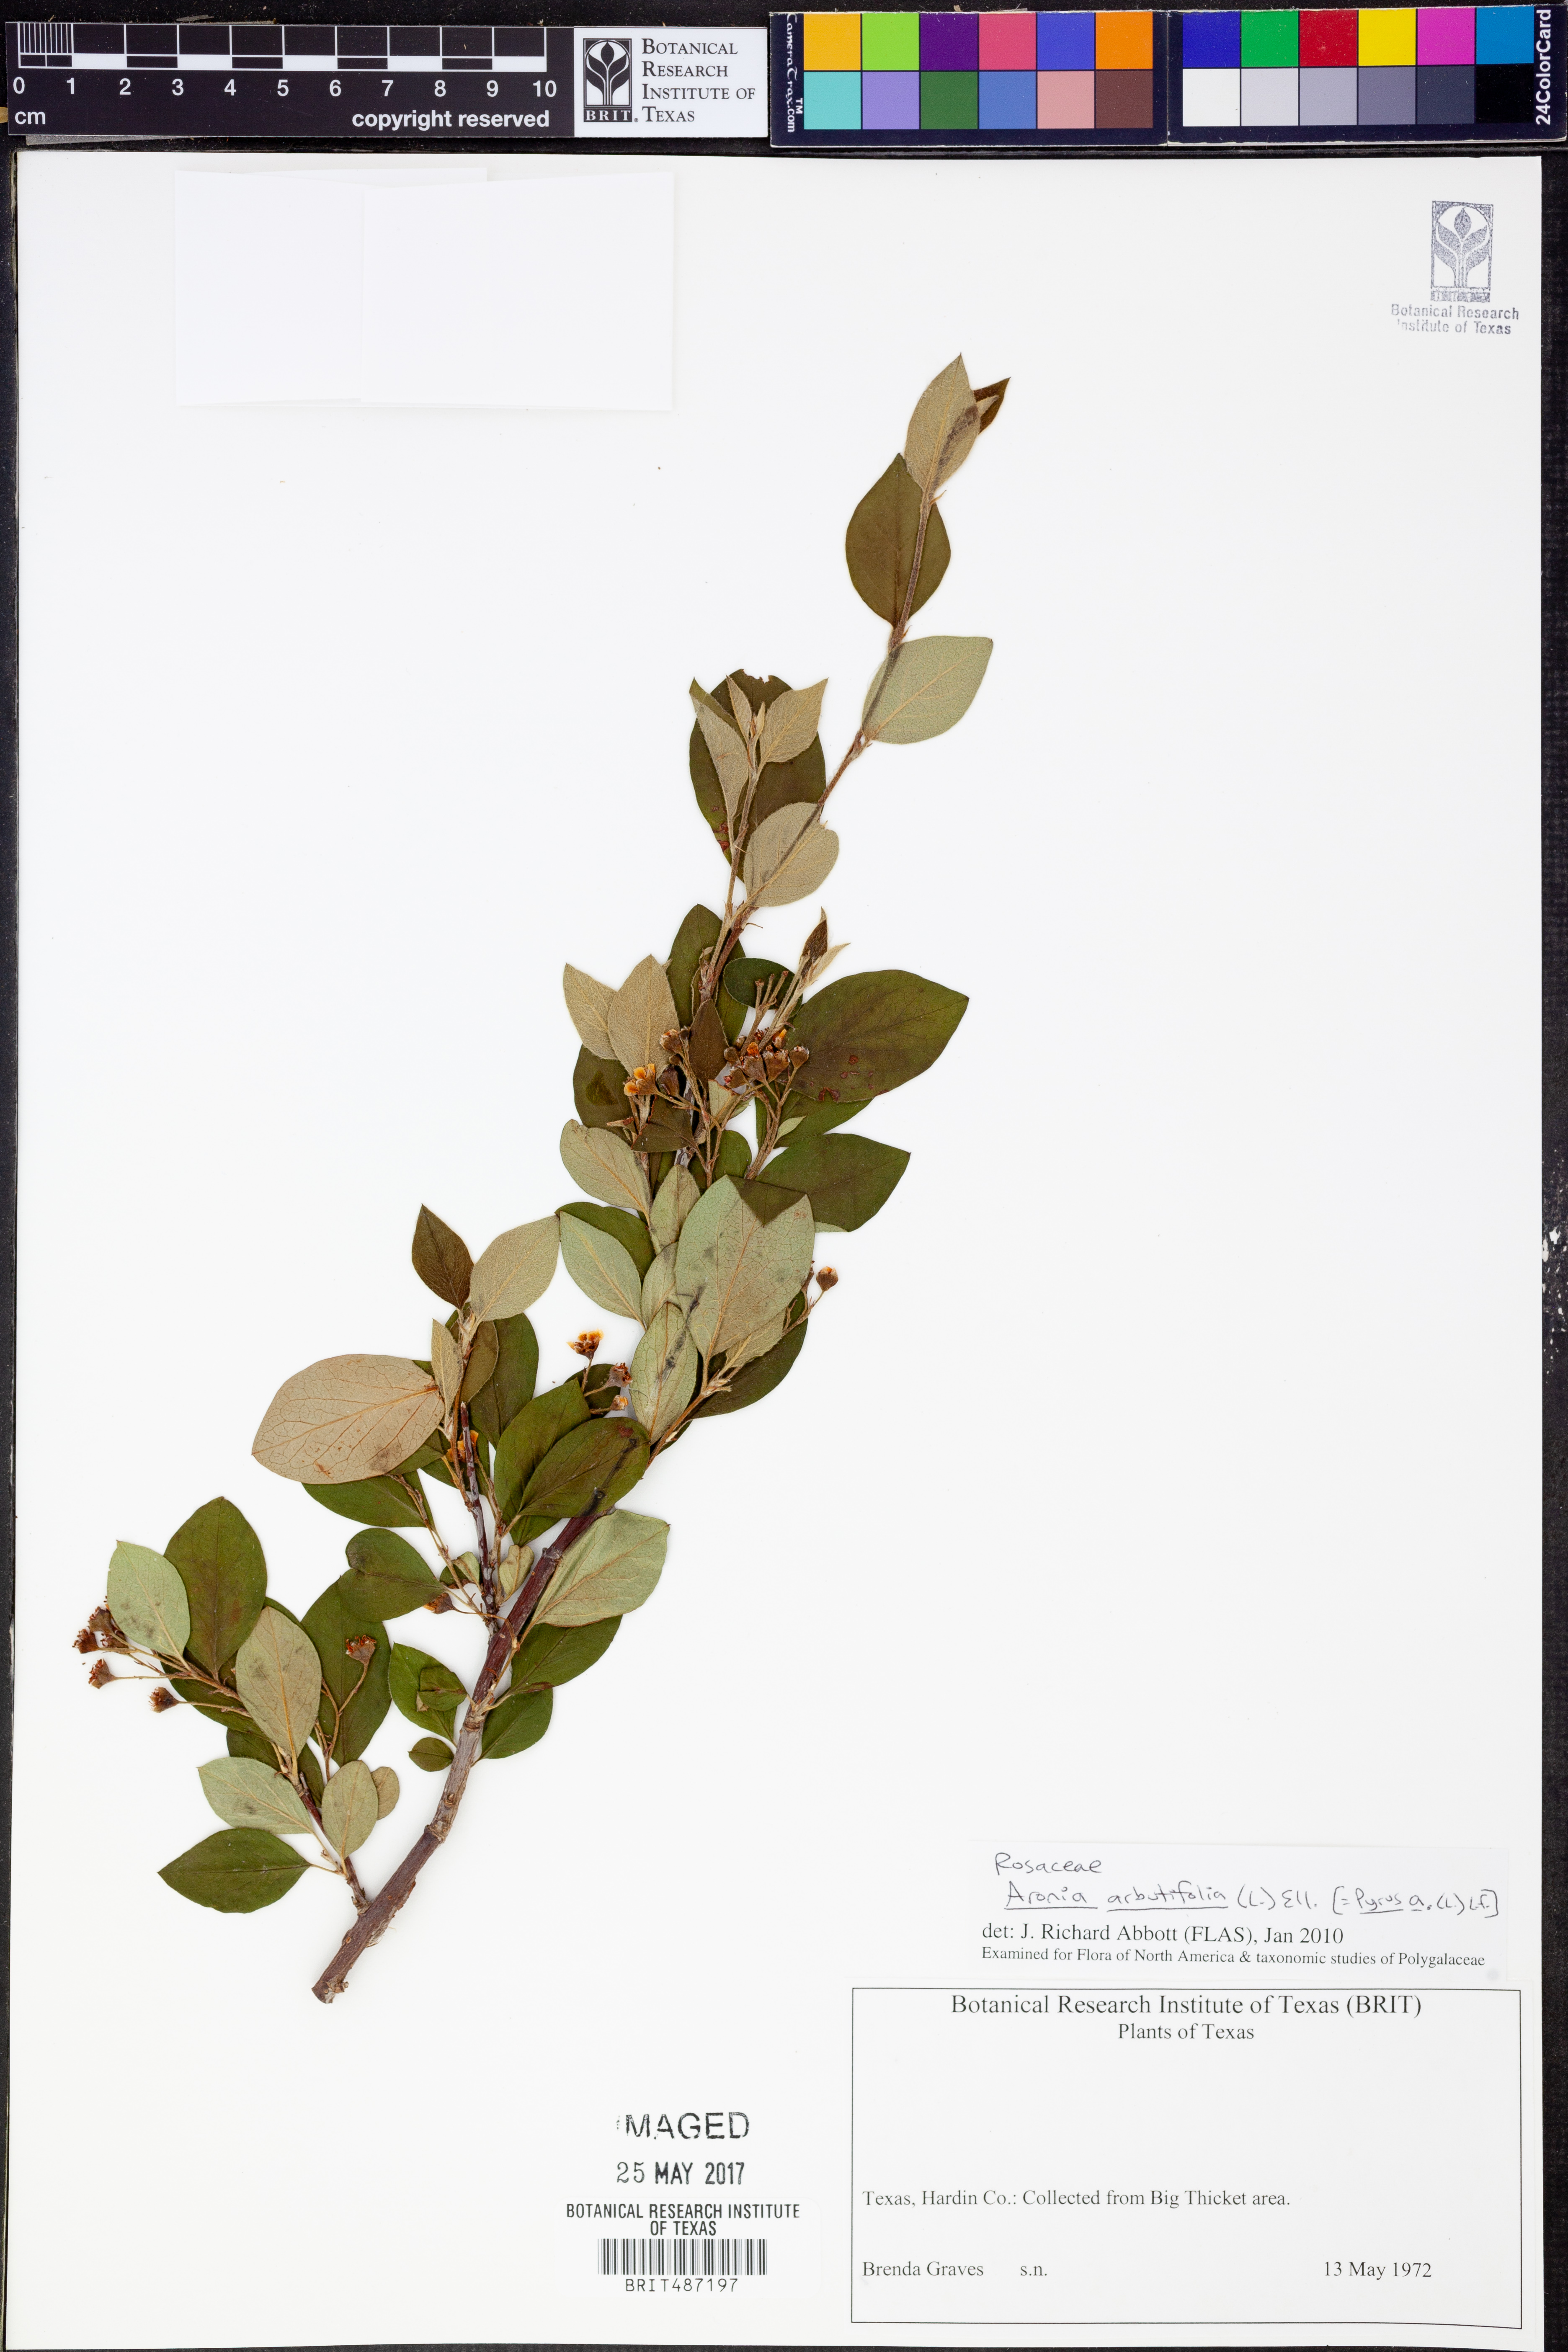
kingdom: Plantae
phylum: Tracheophyta
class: Magnoliopsida
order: Rosales
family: Rosaceae
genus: Aronia
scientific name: Aronia arbutifolia
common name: Red chokeberry
